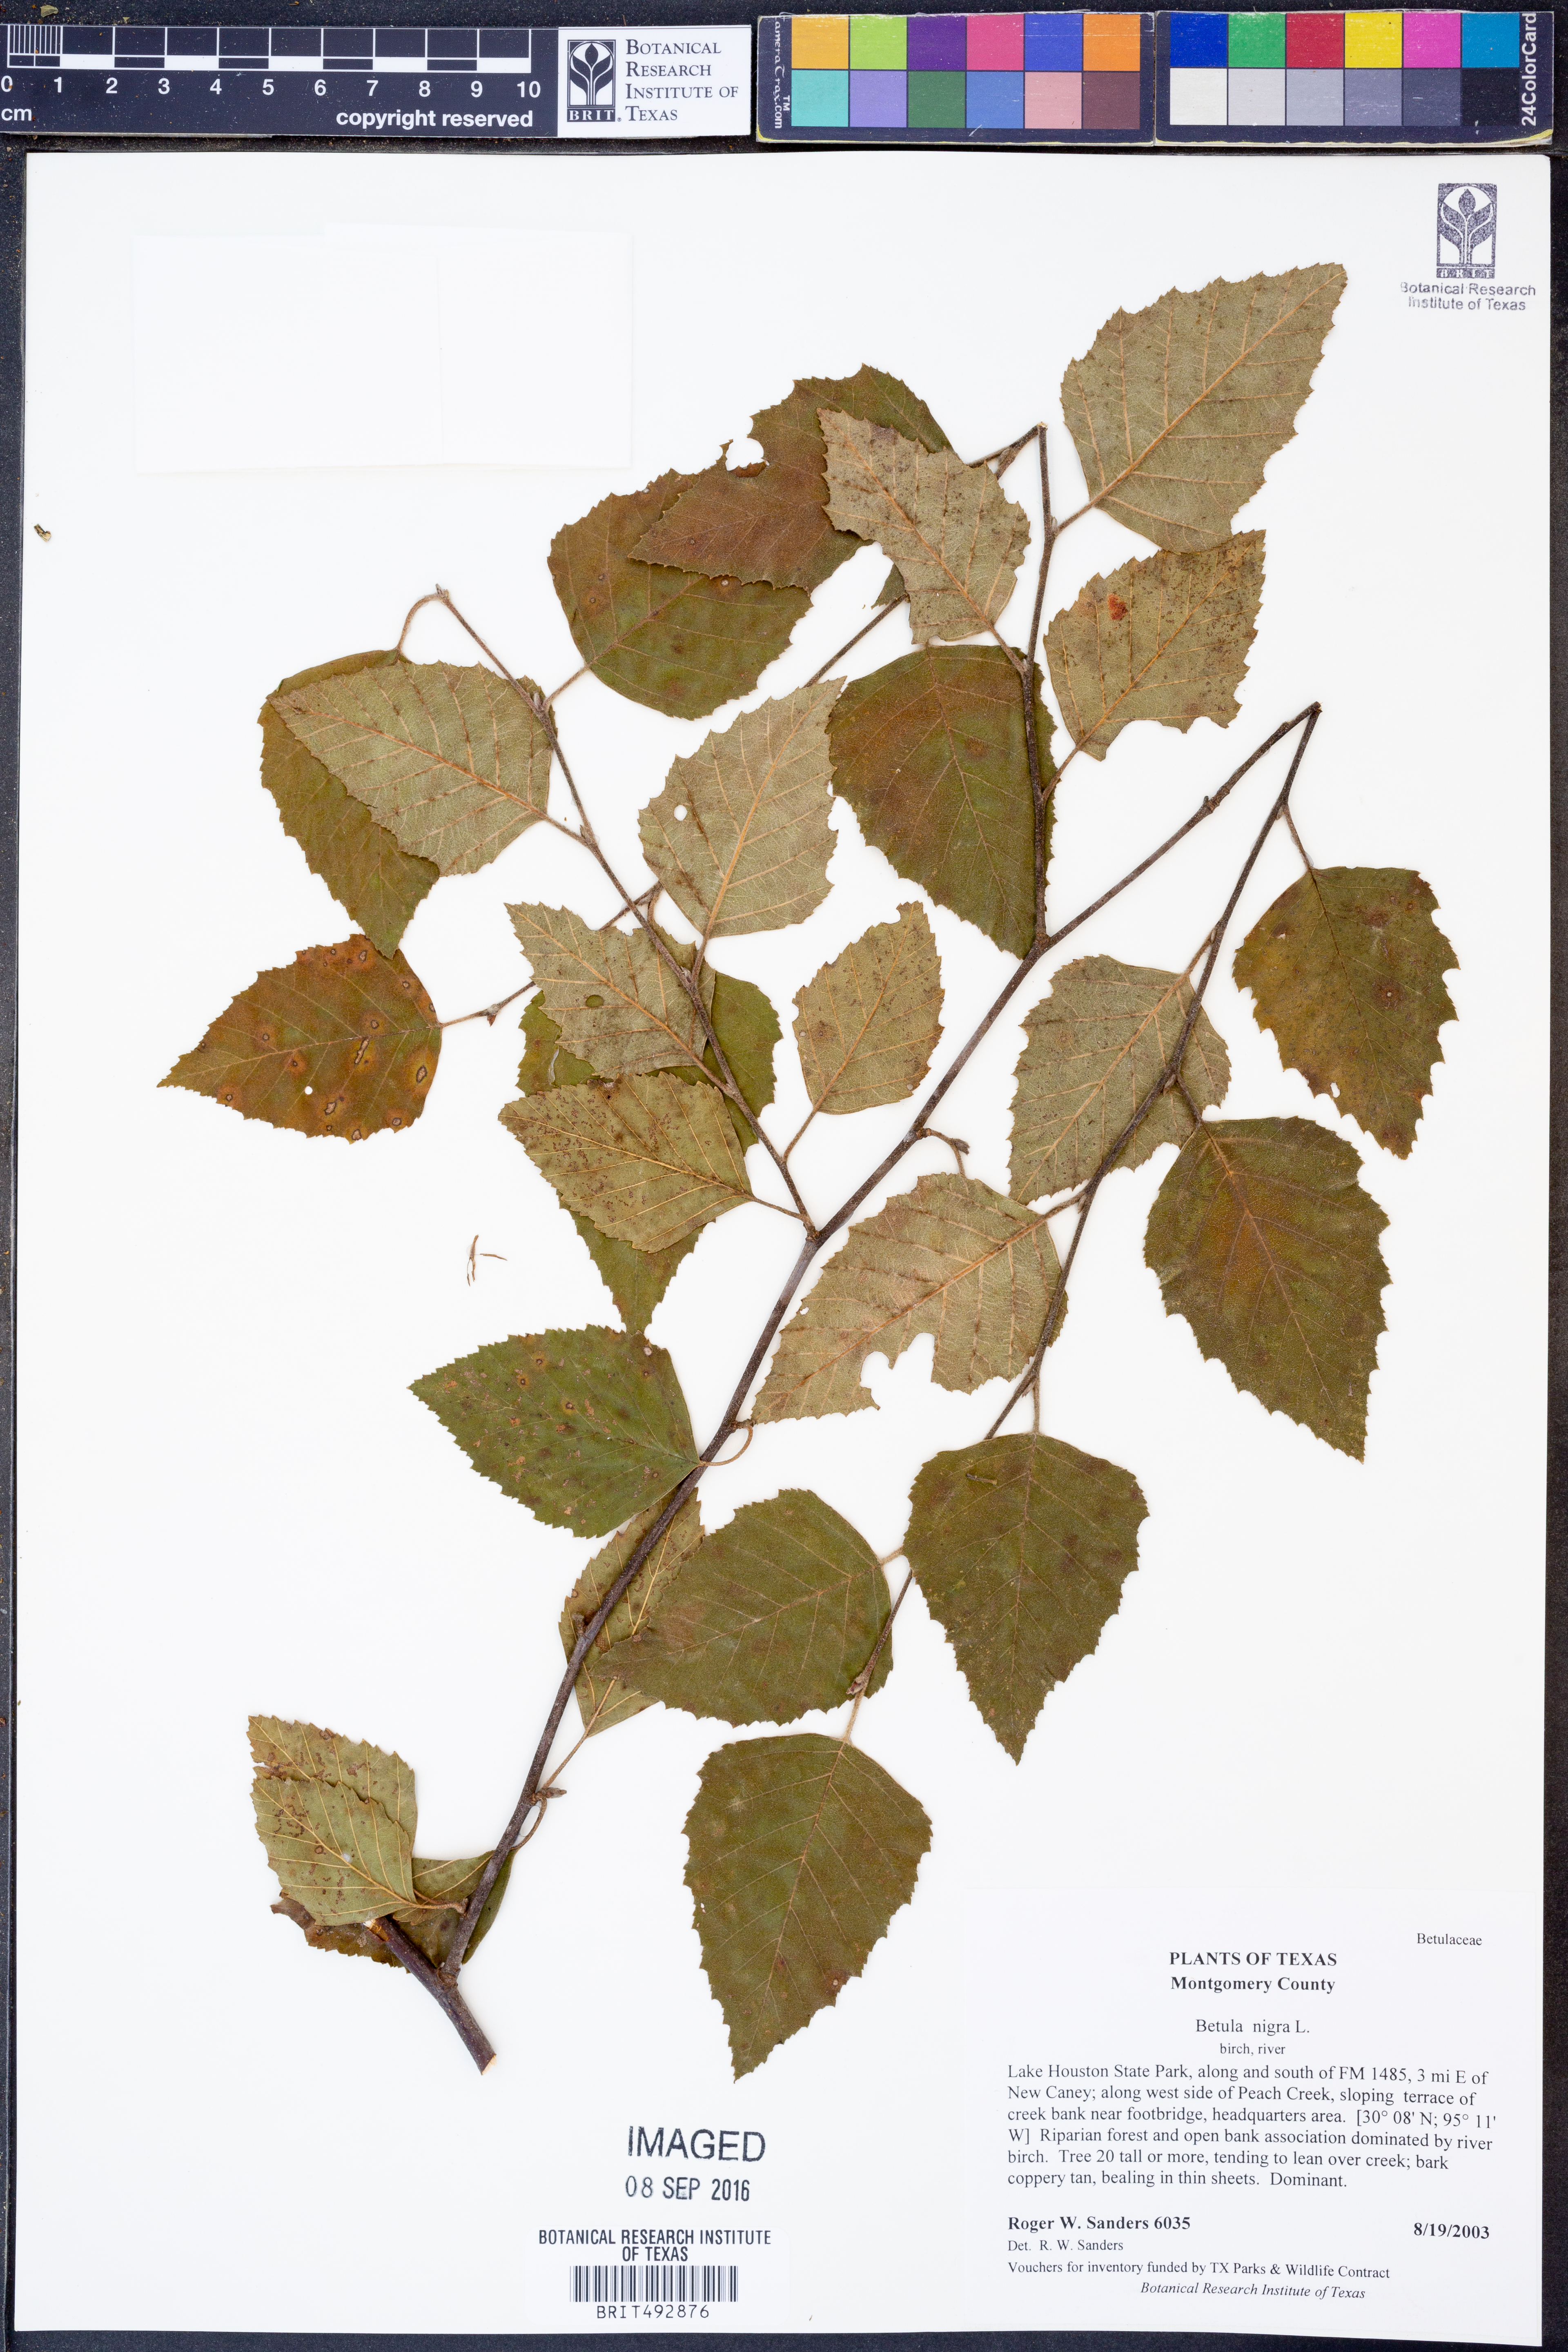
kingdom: Plantae
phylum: Tracheophyta
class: Magnoliopsida
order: Fagales
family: Betulaceae
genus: Betula
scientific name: Betula nigra
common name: Black birch
